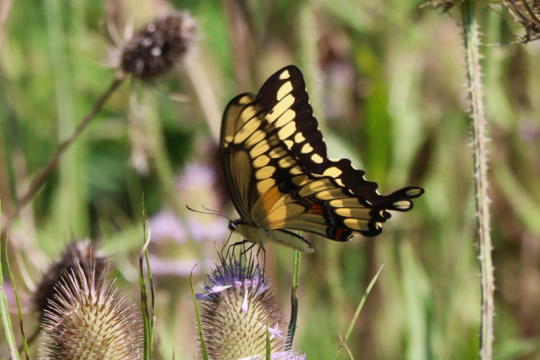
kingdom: Animalia
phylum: Arthropoda
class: Insecta
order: Lepidoptera
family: Papilionidae
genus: Papilio
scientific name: Papilio cresphontes
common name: Eastern Giant Swallowtail
